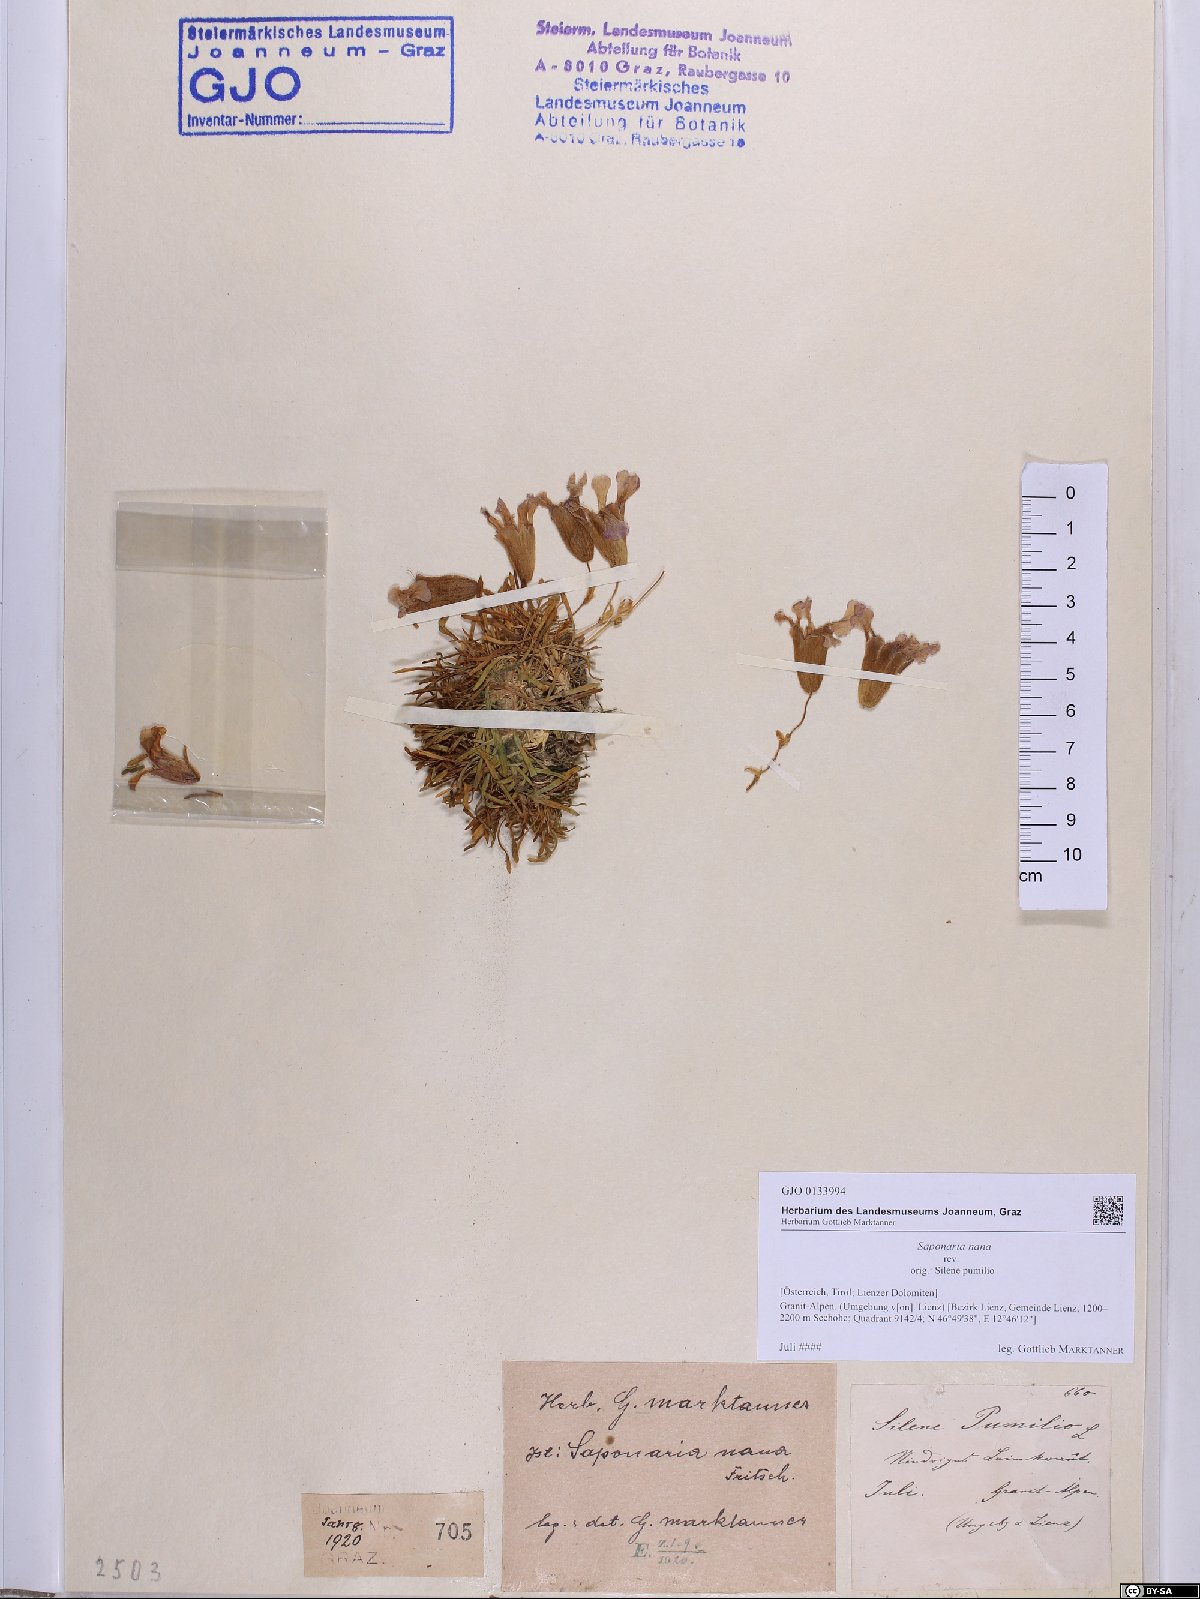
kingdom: Plantae
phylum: Tracheophyta
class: Magnoliopsida
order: Caryophyllales
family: Caryophyllaceae
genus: Saponaria
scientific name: Saponaria pumila
